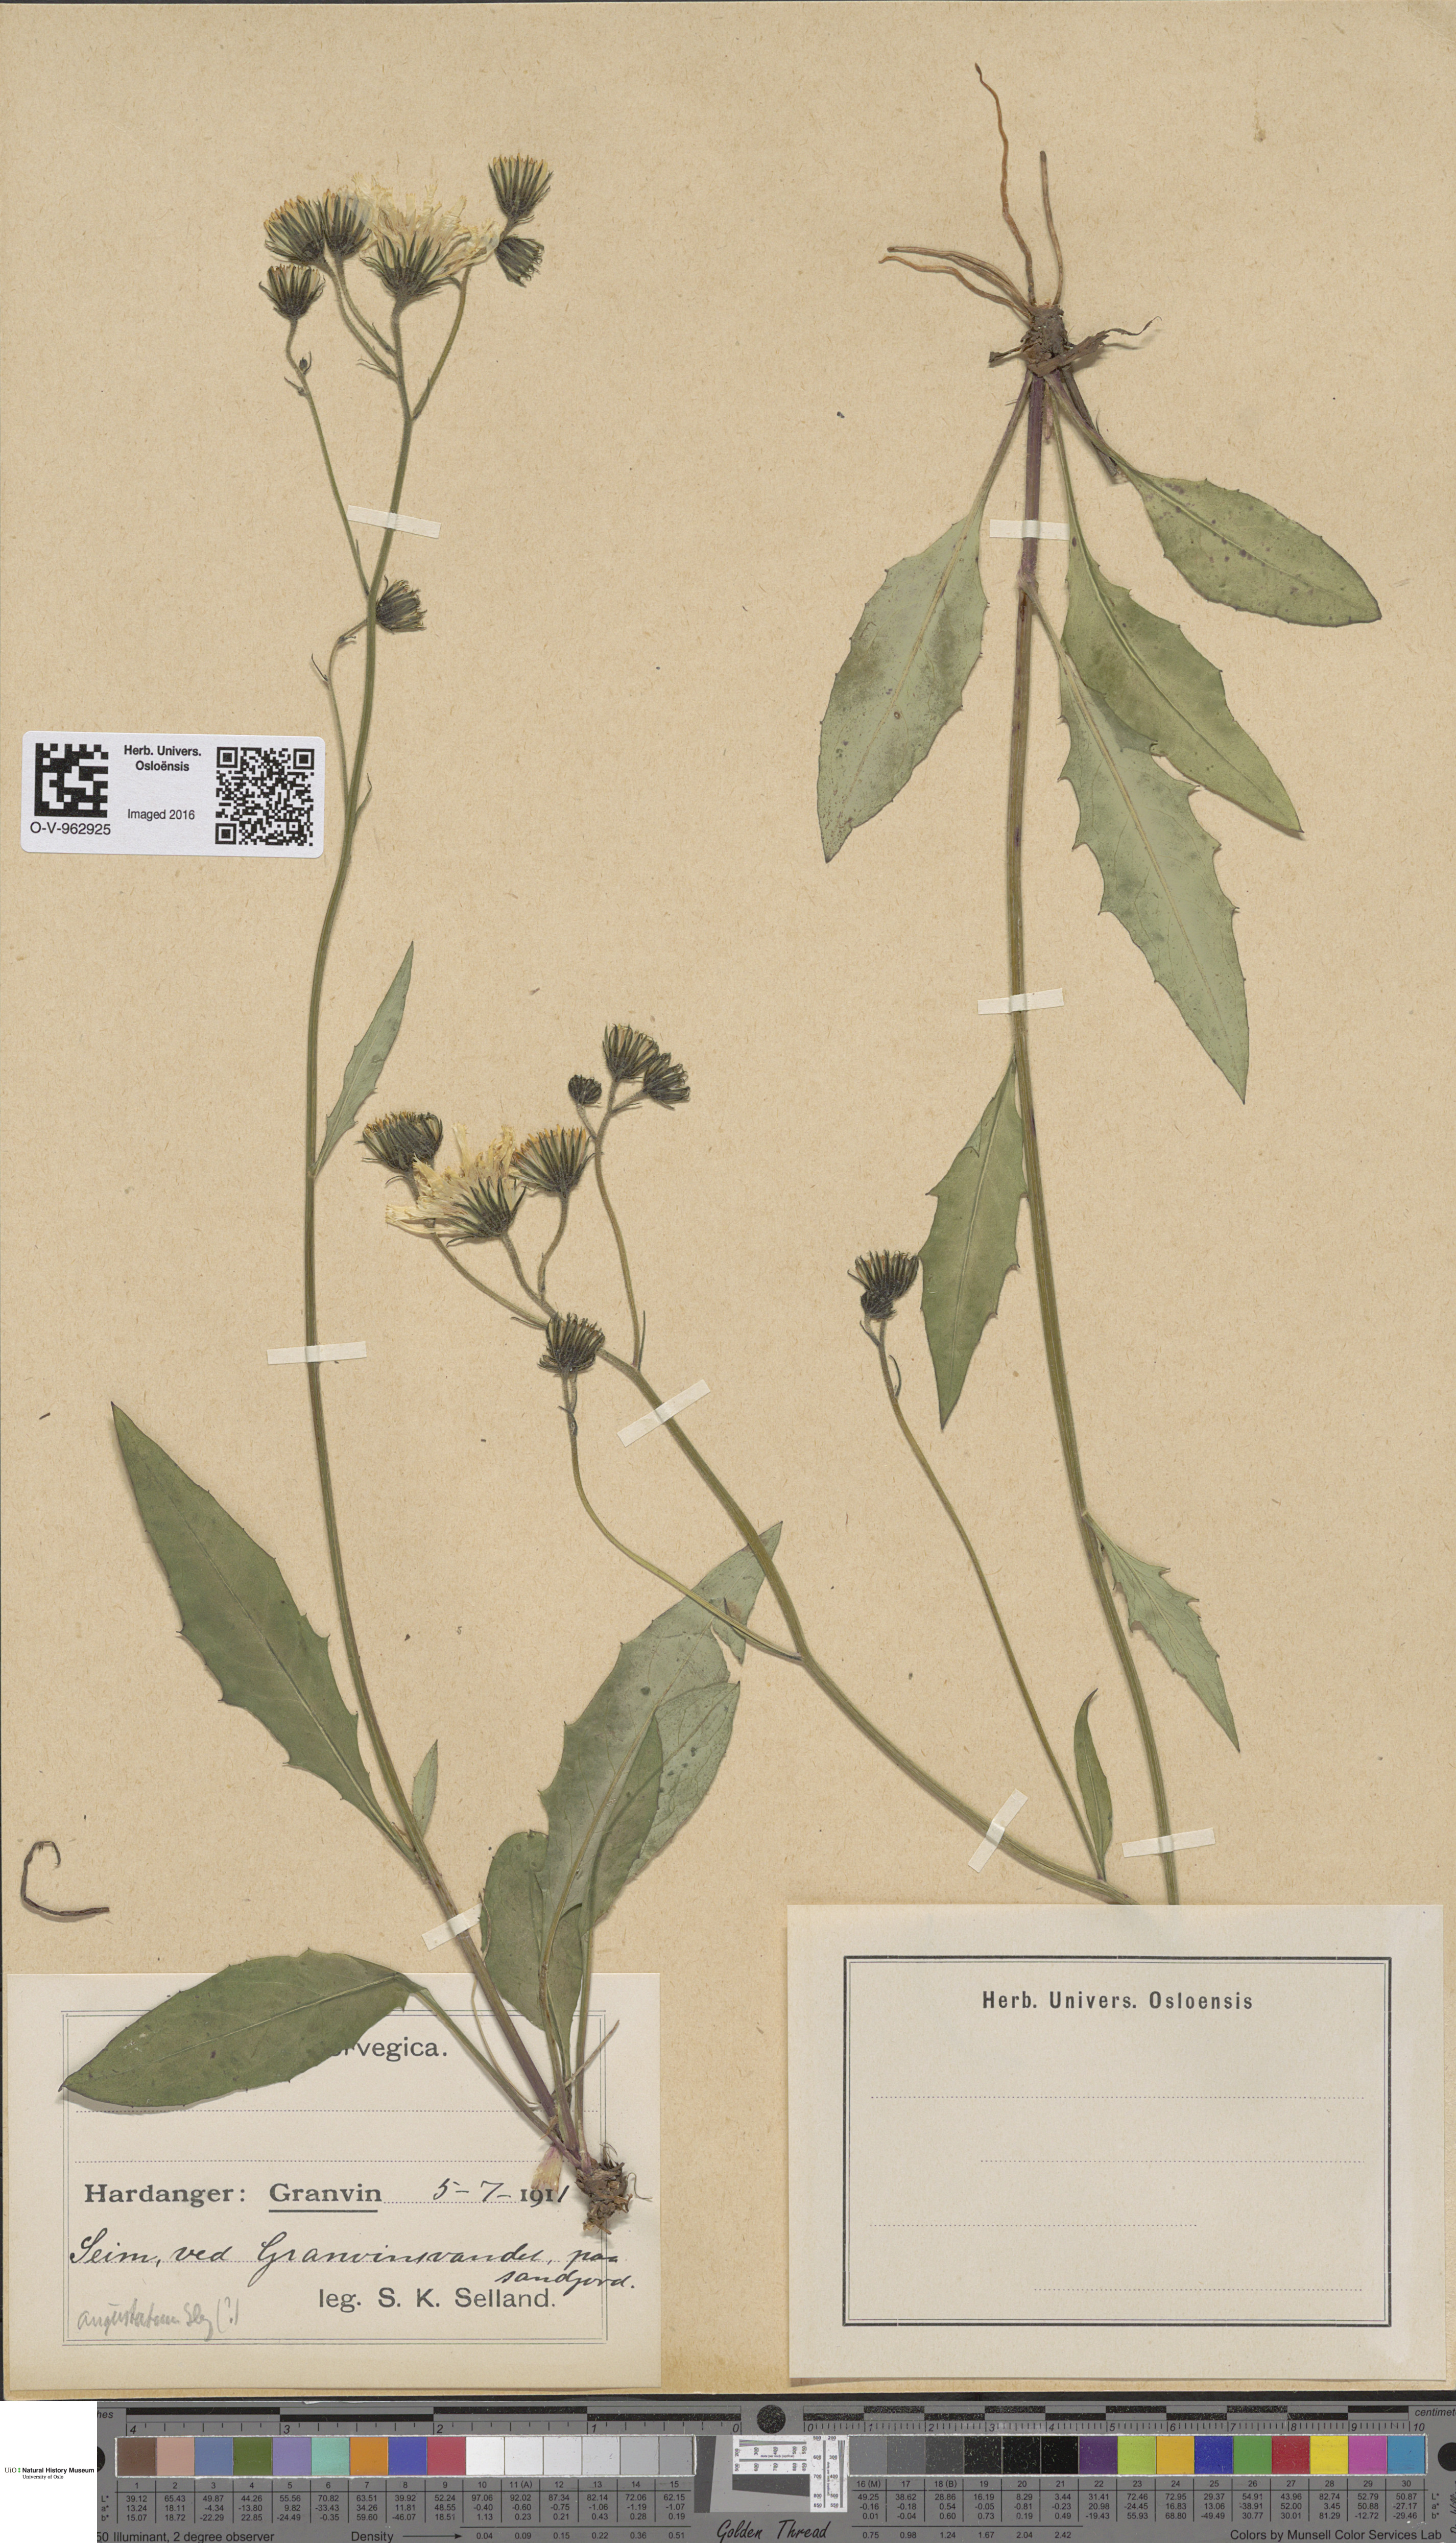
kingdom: Plantae
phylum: Tracheophyta
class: Magnoliopsida
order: Asterales
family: Asteraceae
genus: Hieracium
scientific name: Hieracium angustatum
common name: Lesser-leaved hawkweed
